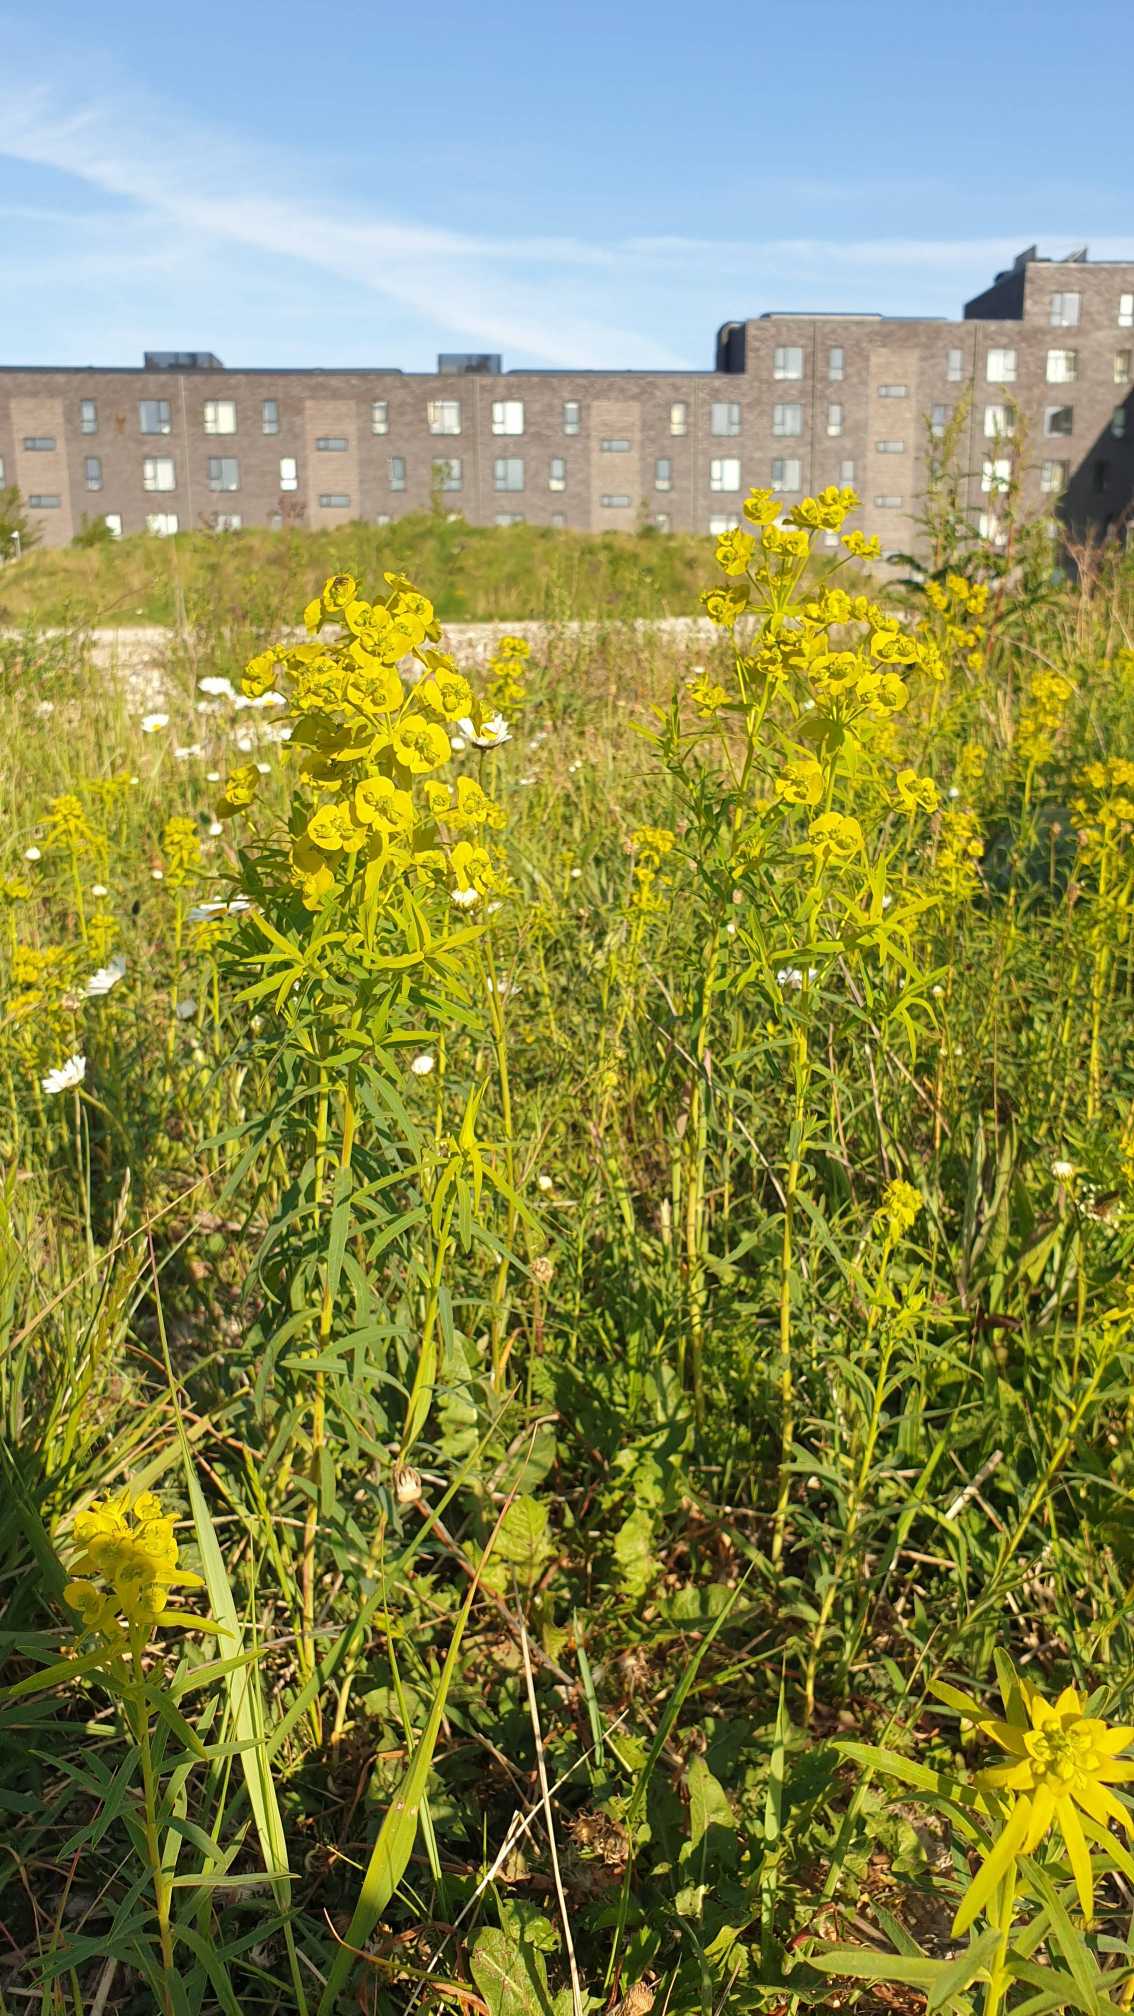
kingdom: Plantae
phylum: Tracheophyta
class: Magnoliopsida
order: Malpighiales
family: Euphorbiaceae
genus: Euphorbia
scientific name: Euphorbia esula
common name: Langbladet vortemælk
